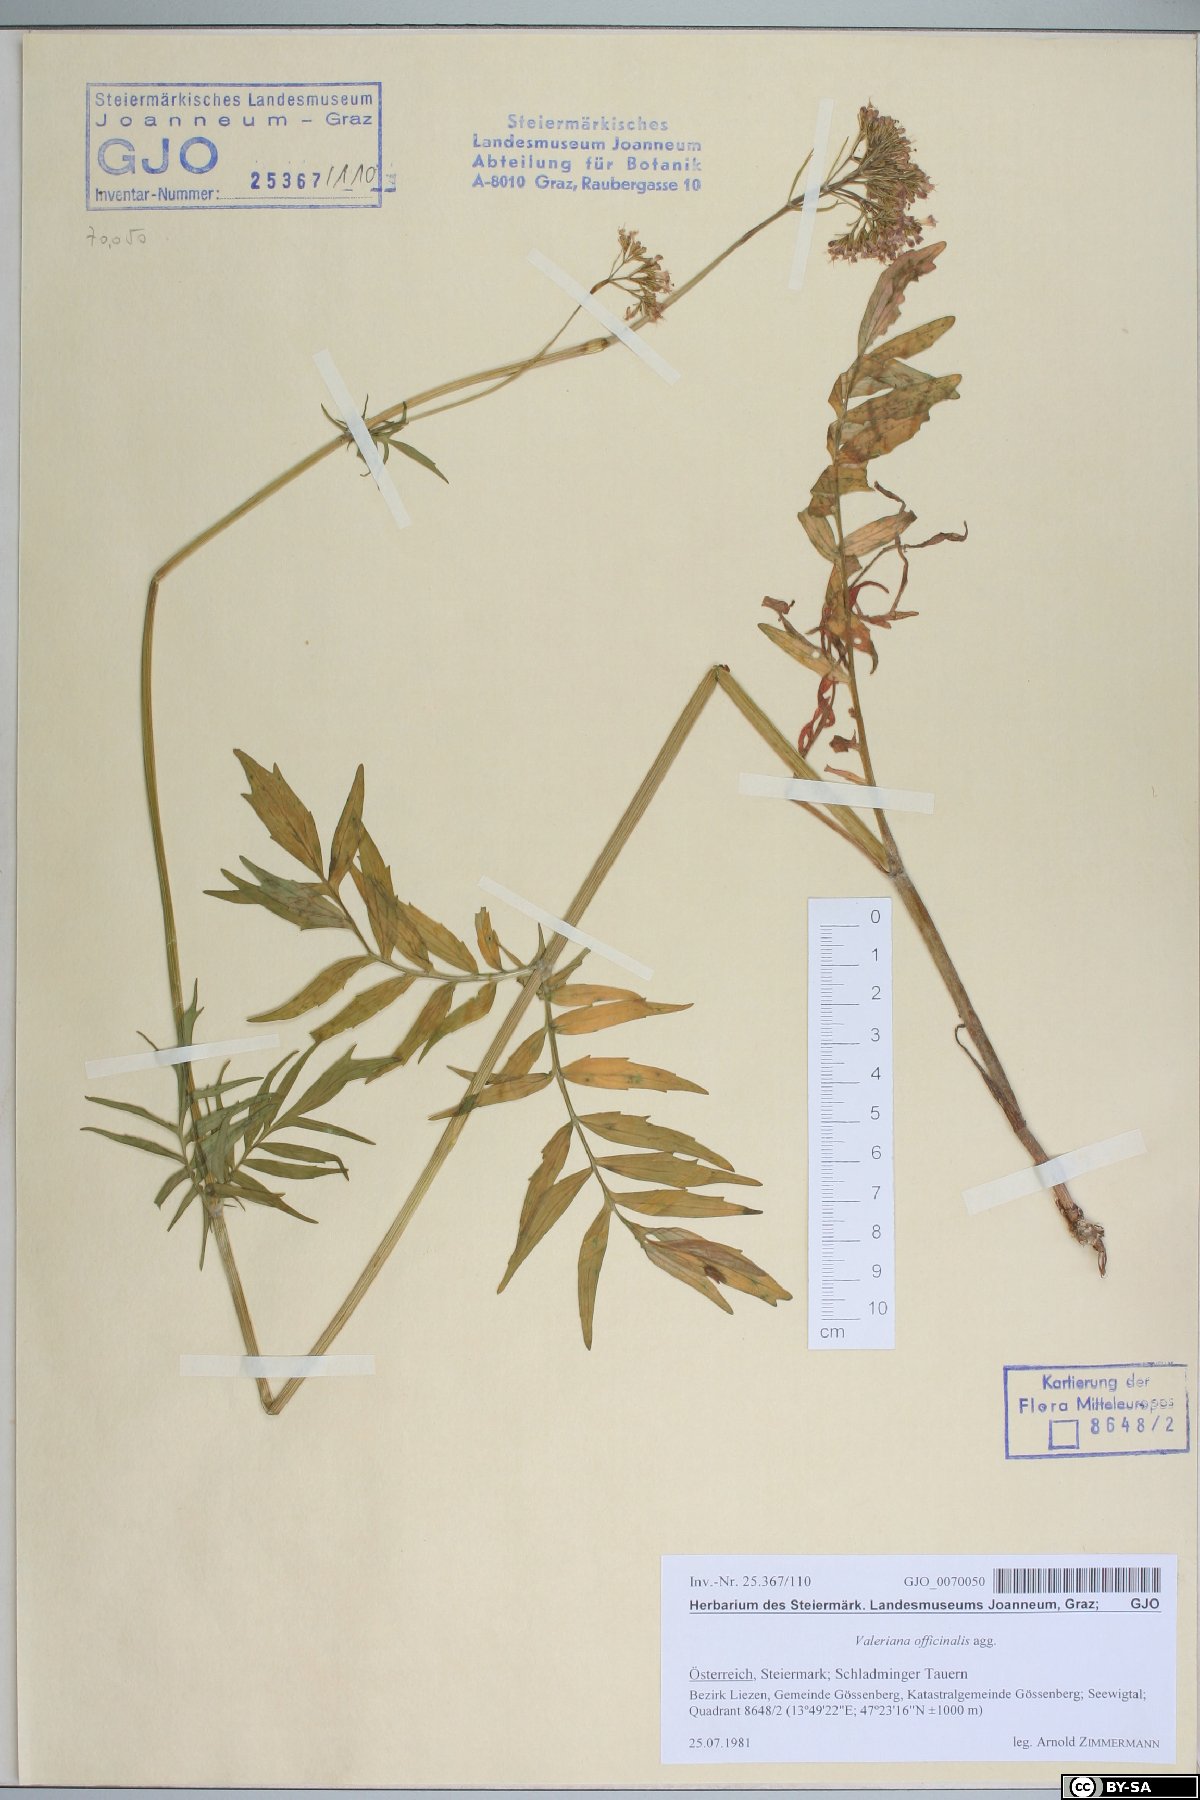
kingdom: Plantae
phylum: Tracheophyta
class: Magnoliopsida
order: Dipsacales
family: Caprifoliaceae
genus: Valeriana
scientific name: Valeriana officinalis
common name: Common valerian
